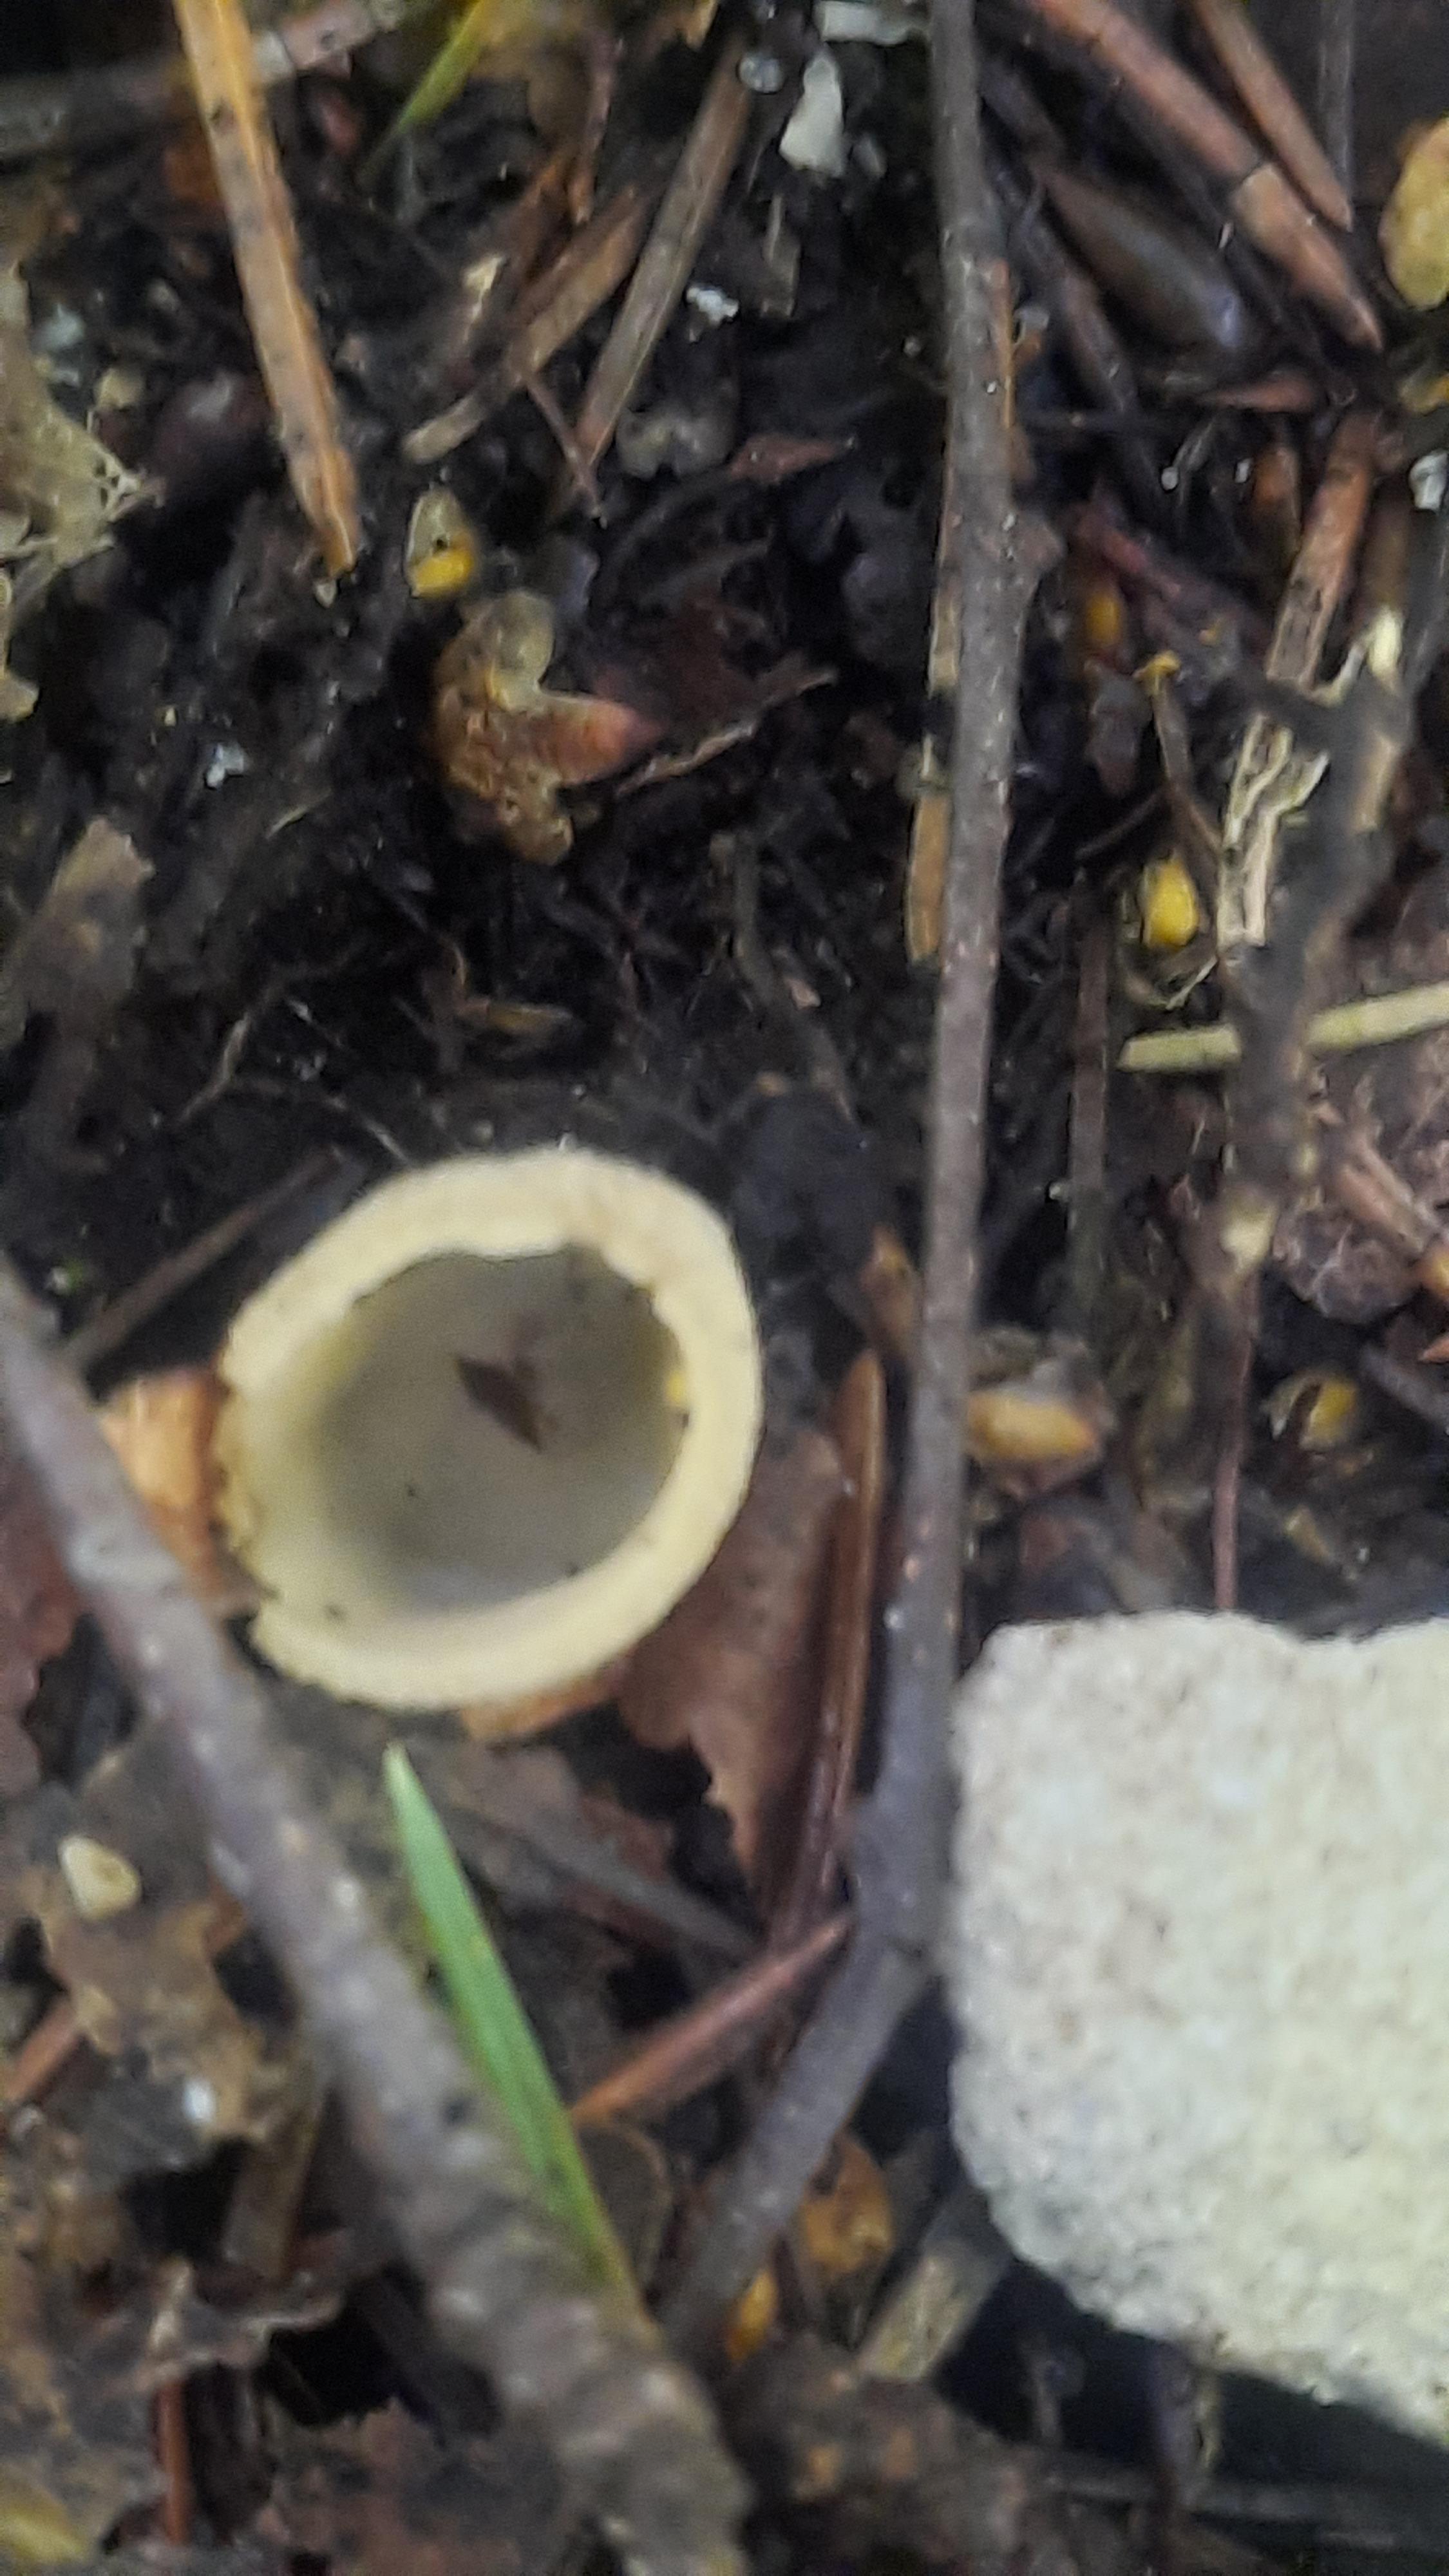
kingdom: Fungi
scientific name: Fungi
